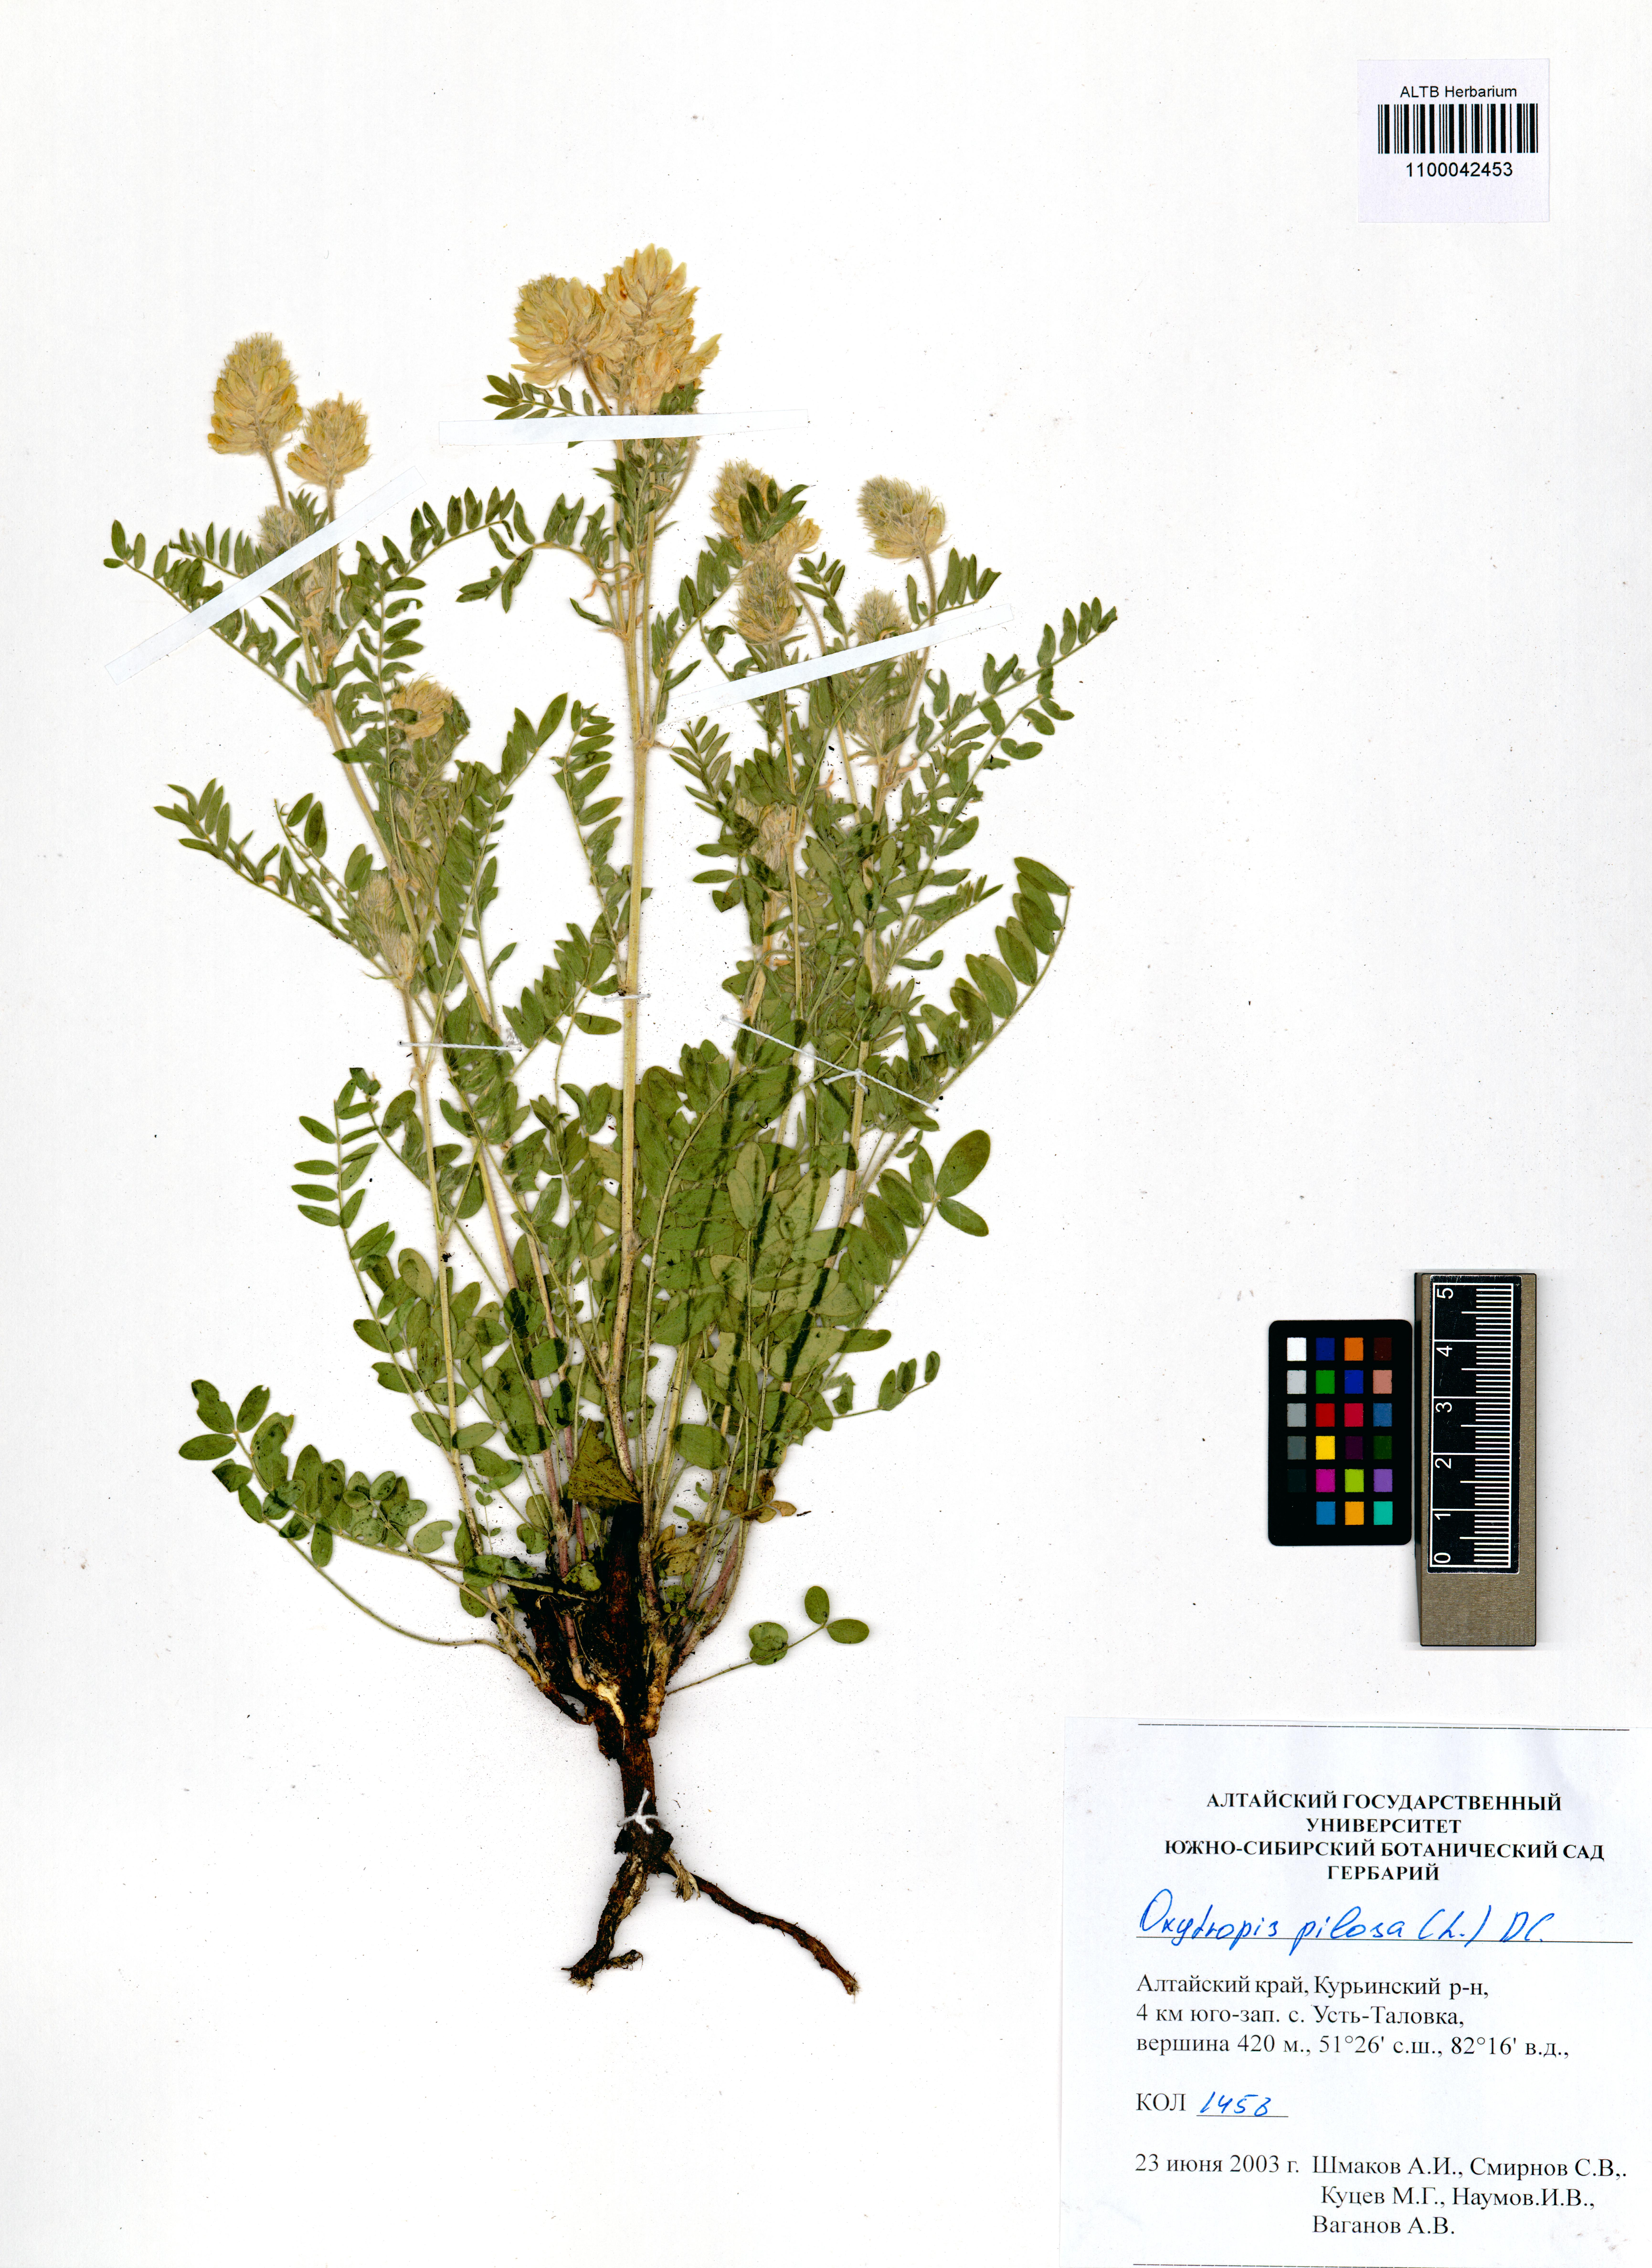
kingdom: Plantae
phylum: Tracheophyta
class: Magnoliopsida
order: Fabales
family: Fabaceae
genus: Oxytropis
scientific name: Oxytropis pilosa
